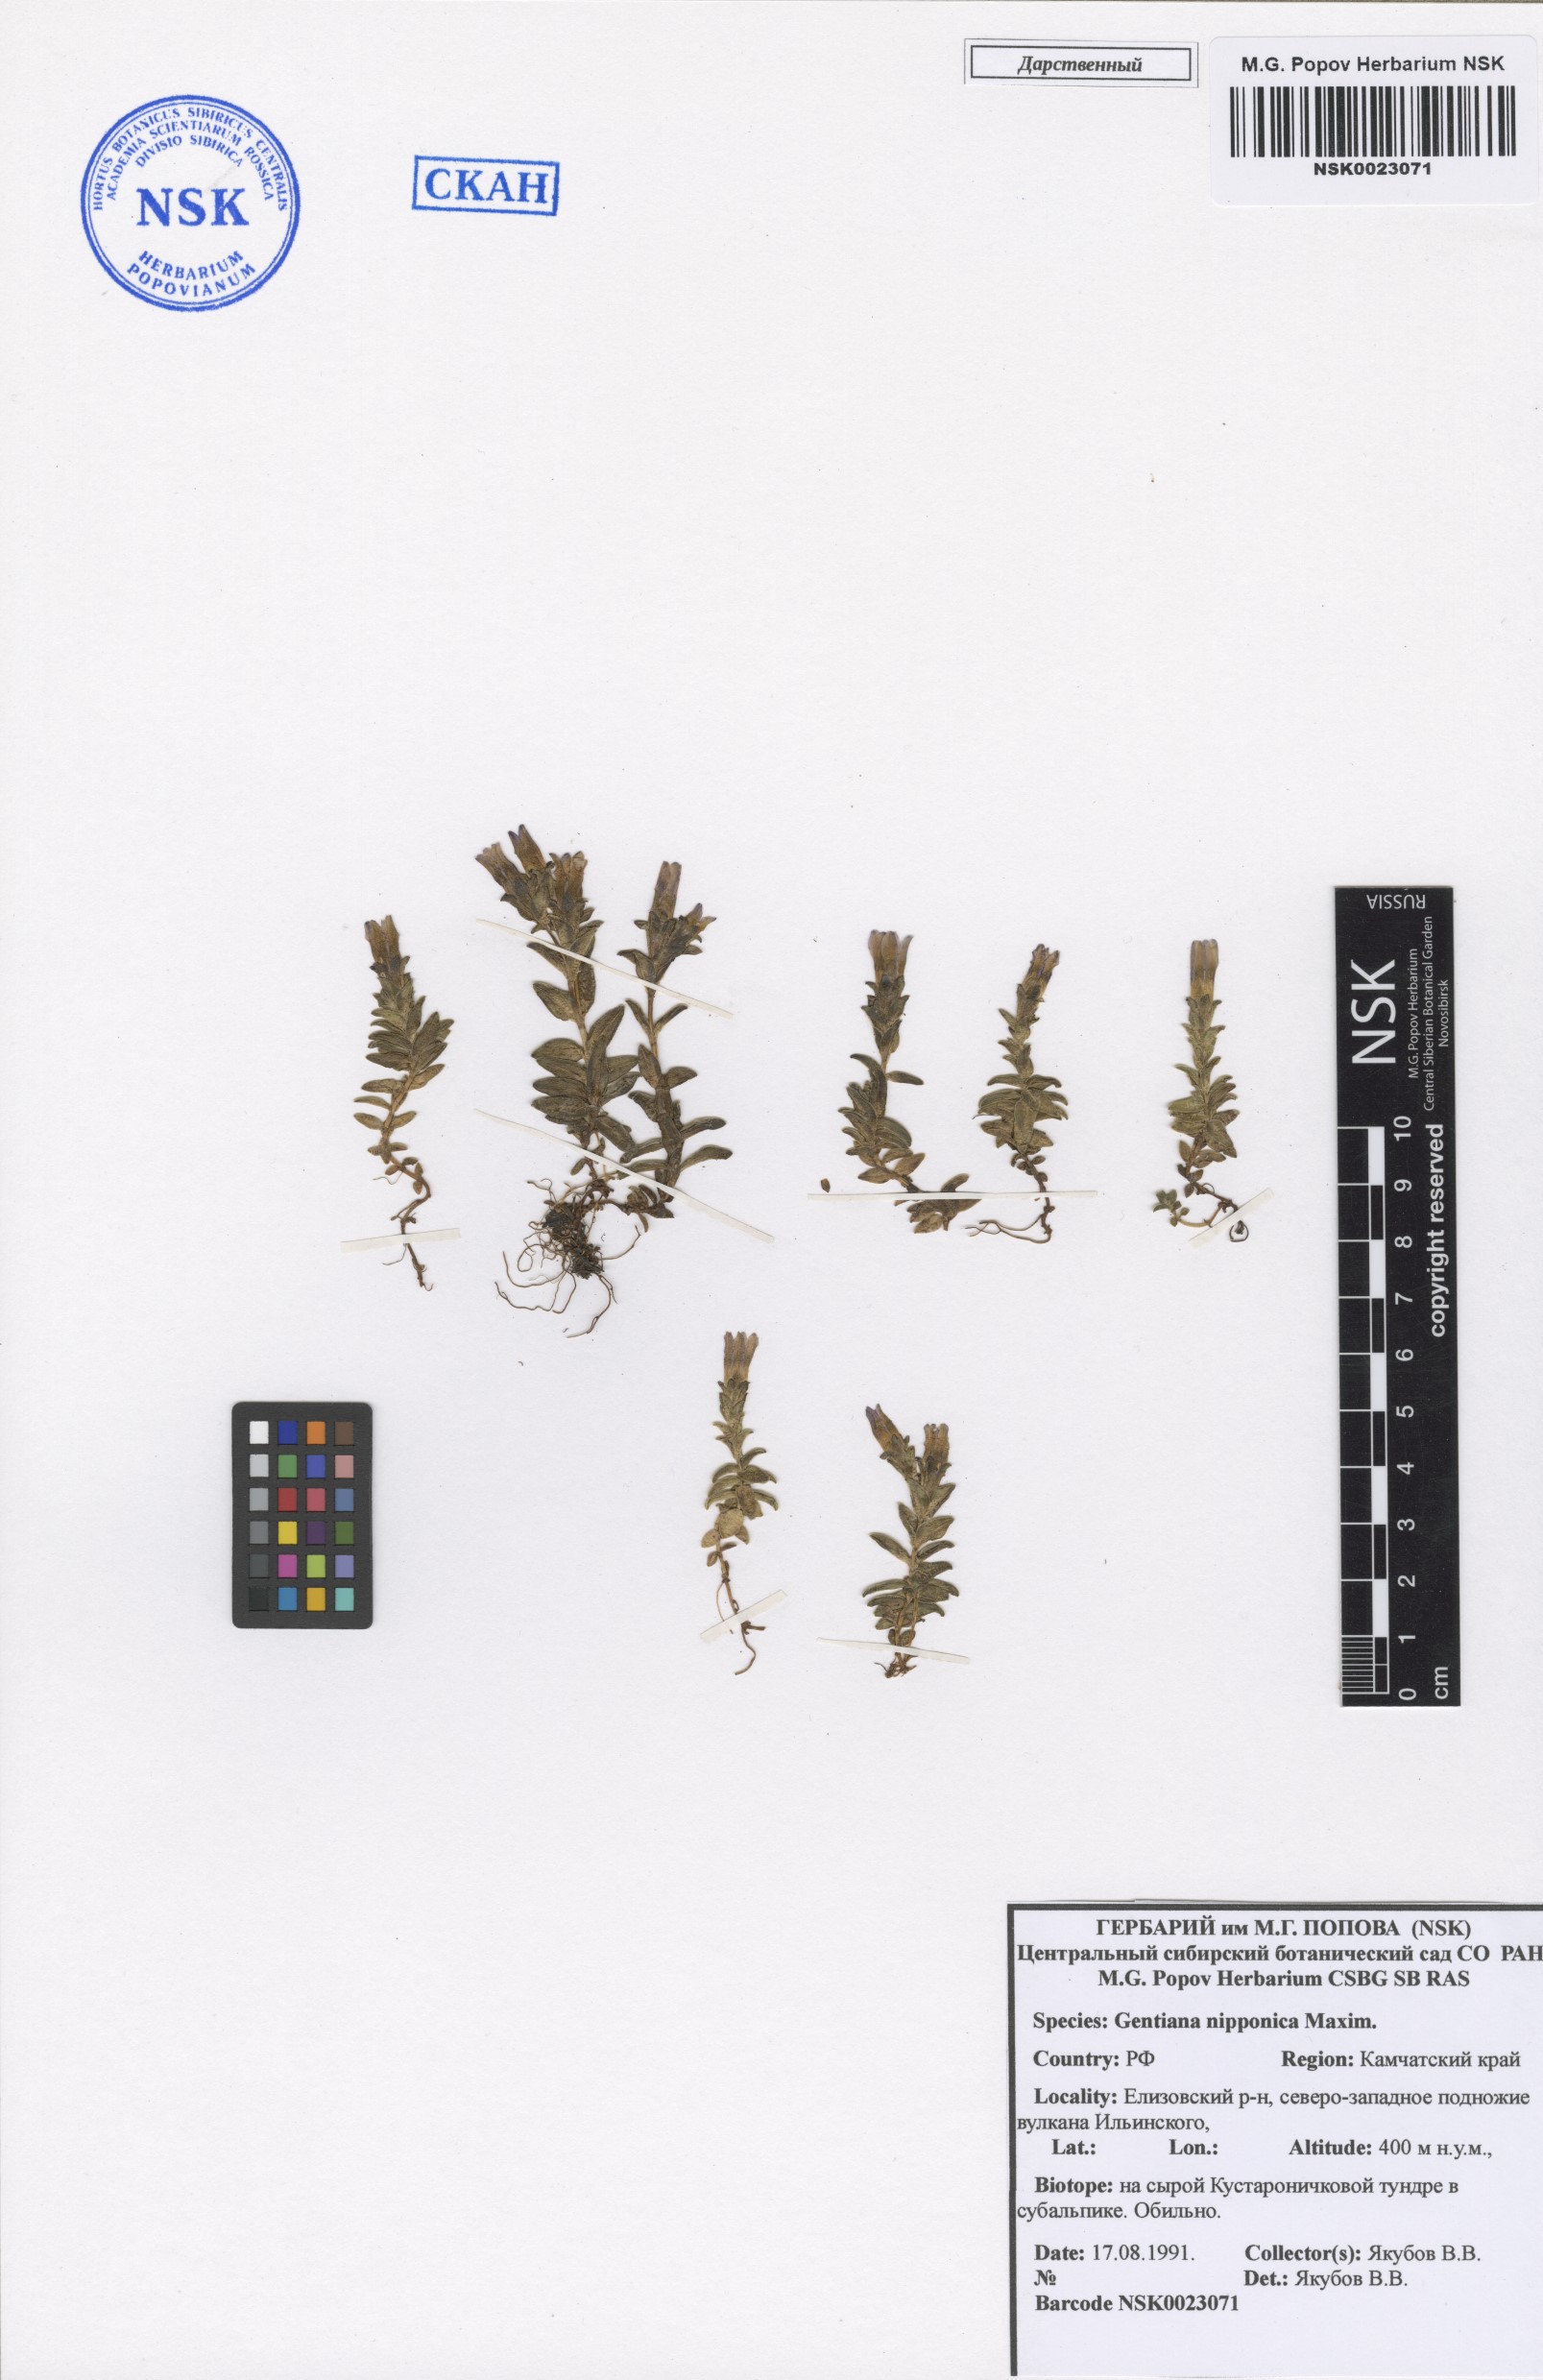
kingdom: Plantae
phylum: Tracheophyta
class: Magnoliopsida
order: Gentianales
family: Gentianaceae
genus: Gentiana
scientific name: Gentiana nipponica
